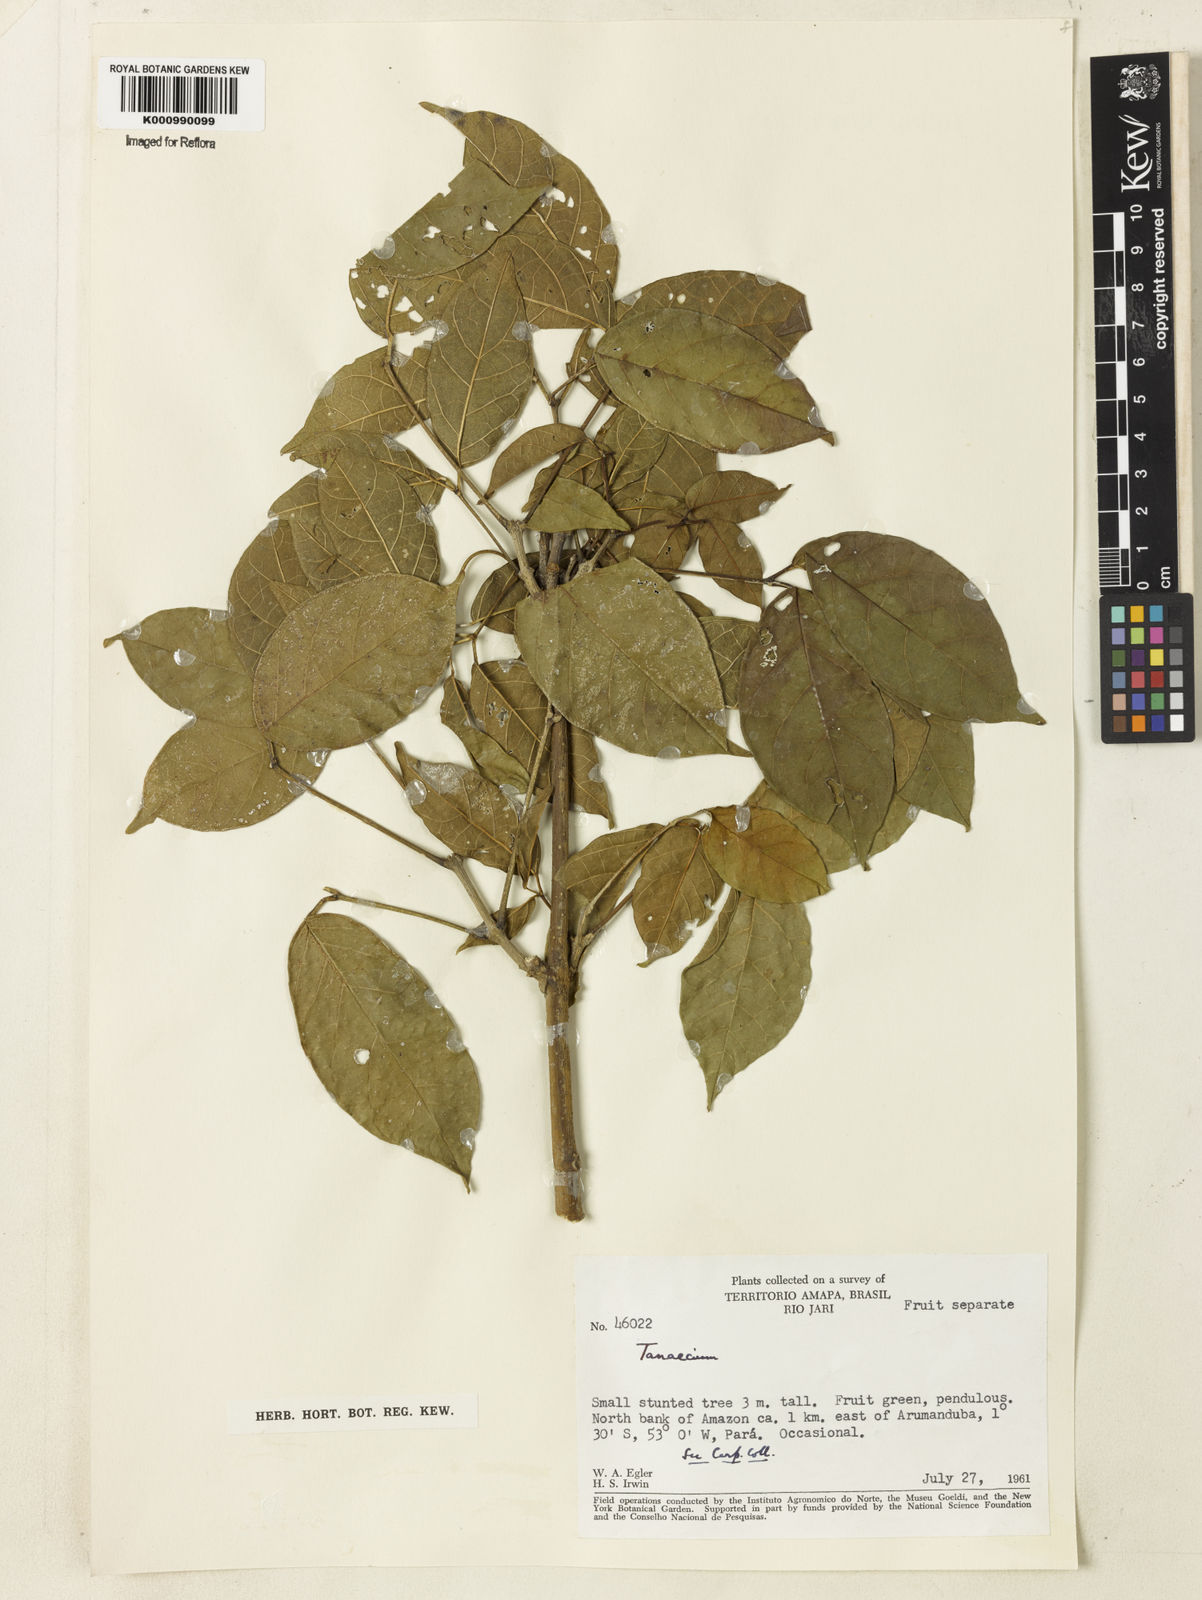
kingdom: Plantae
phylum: Tracheophyta
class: Magnoliopsida
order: Lamiales
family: Bignoniaceae
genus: Tanaecium
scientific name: Tanaecium
